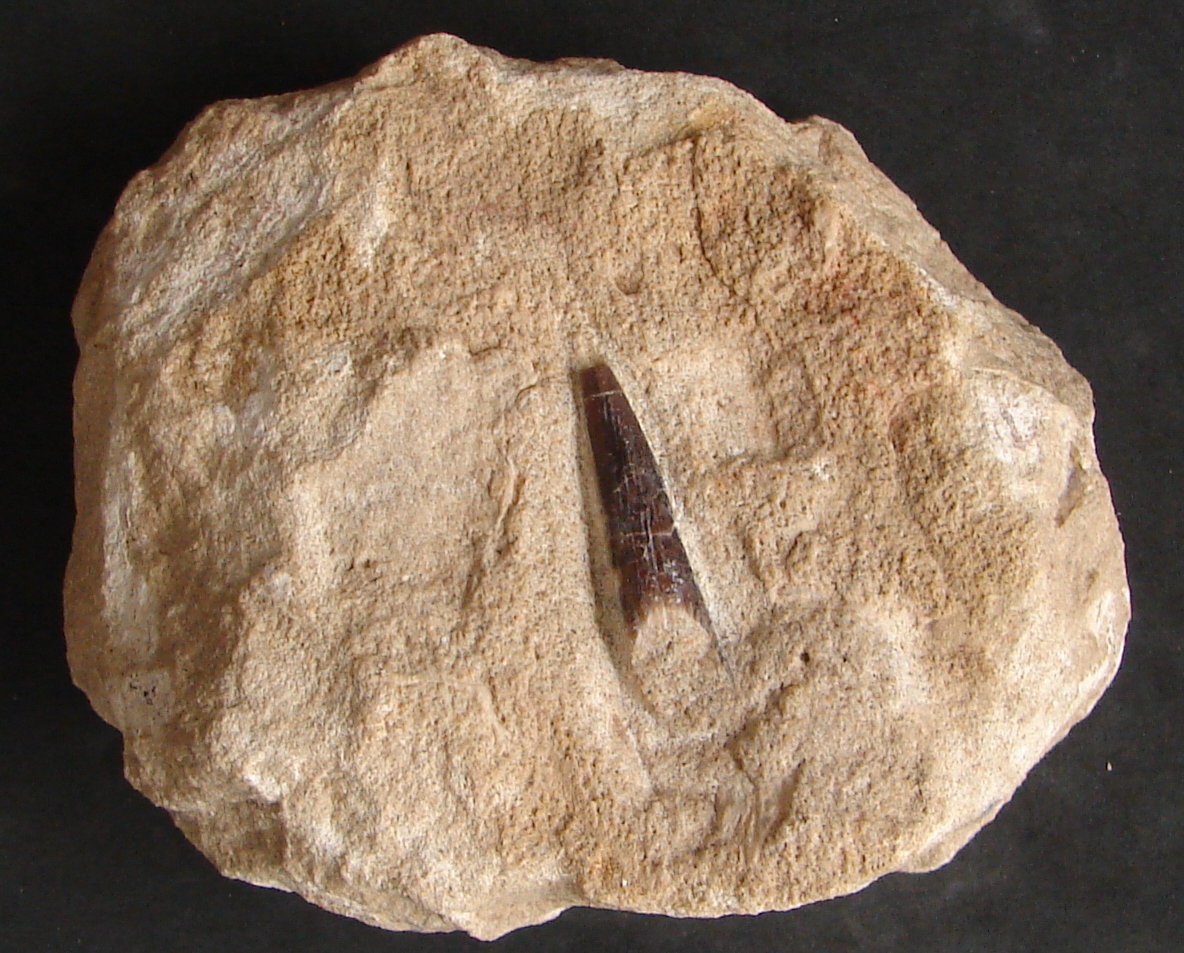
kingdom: Animalia
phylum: Mollusca
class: Cephalopoda
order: Belemnitida
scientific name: Belemnitida
